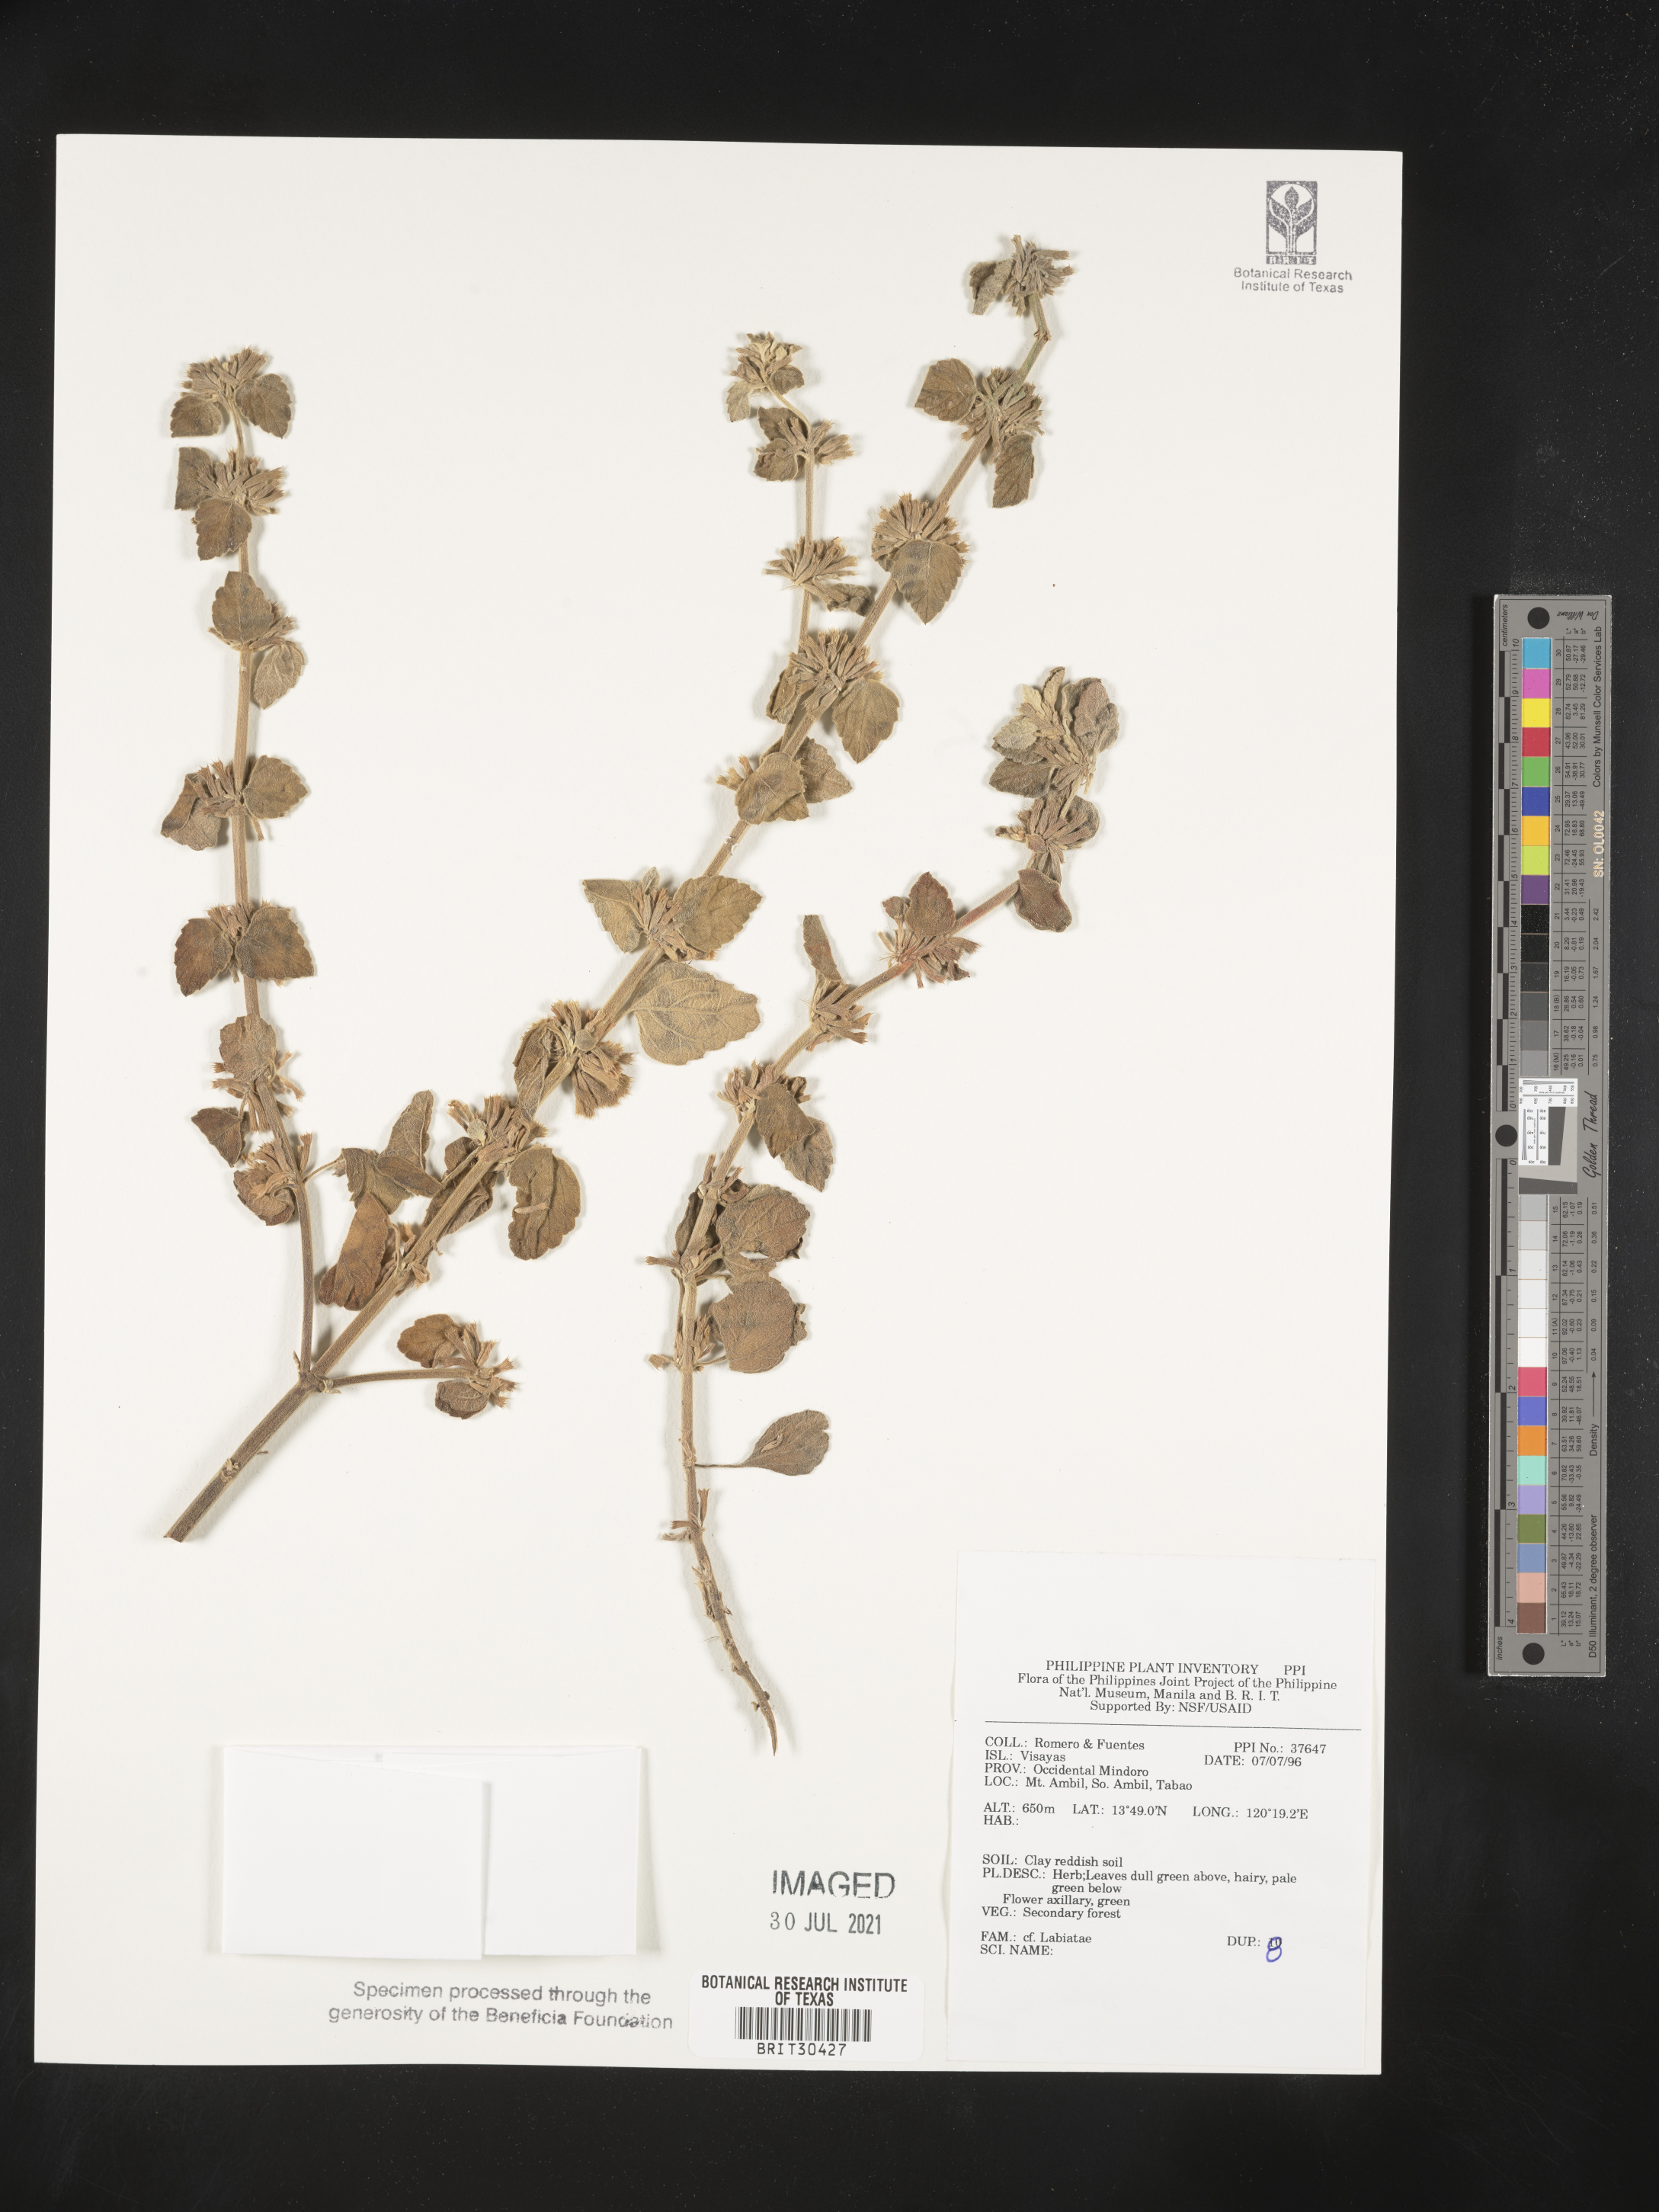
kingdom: Plantae
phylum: Tracheophyta
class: Magnoliopsida
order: Lamiales
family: Lamiaceae
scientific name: Lamiaceae
